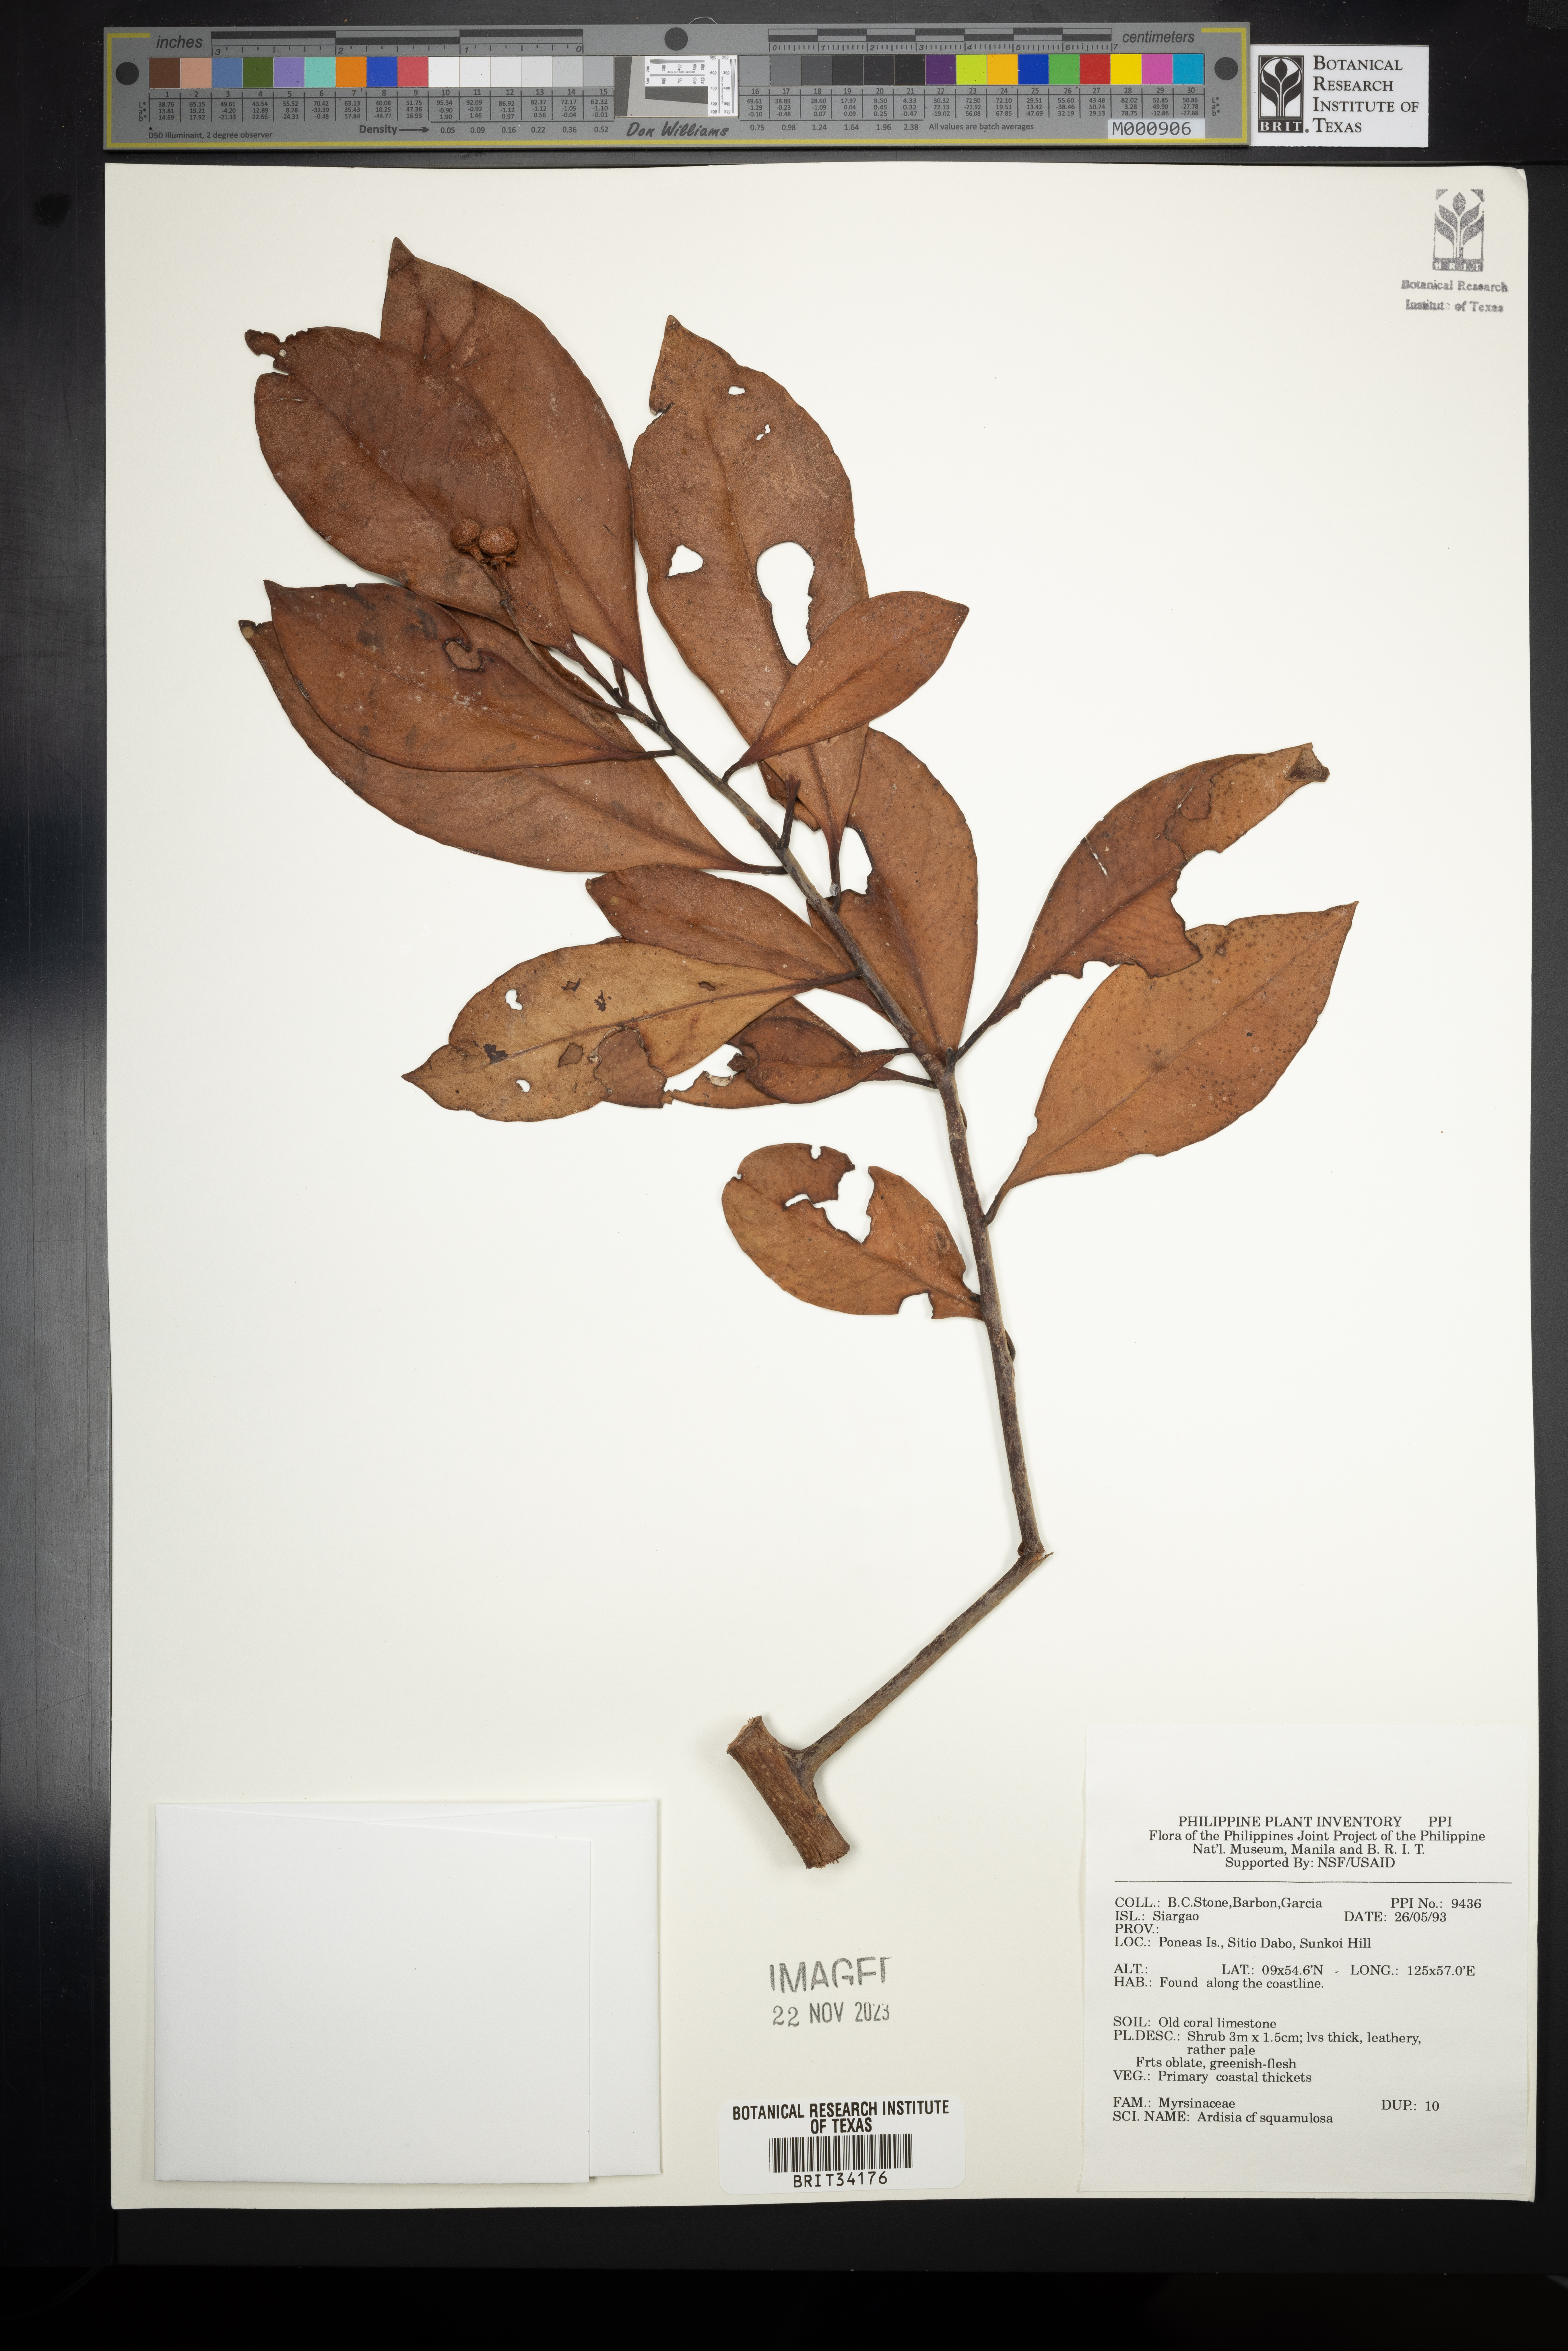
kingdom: Plantae
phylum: Tracheophyta
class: Magnoliopsida
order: Ericales
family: Primulaceae
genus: Ardisia
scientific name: Ardisia elliptica
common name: Shoebutton
